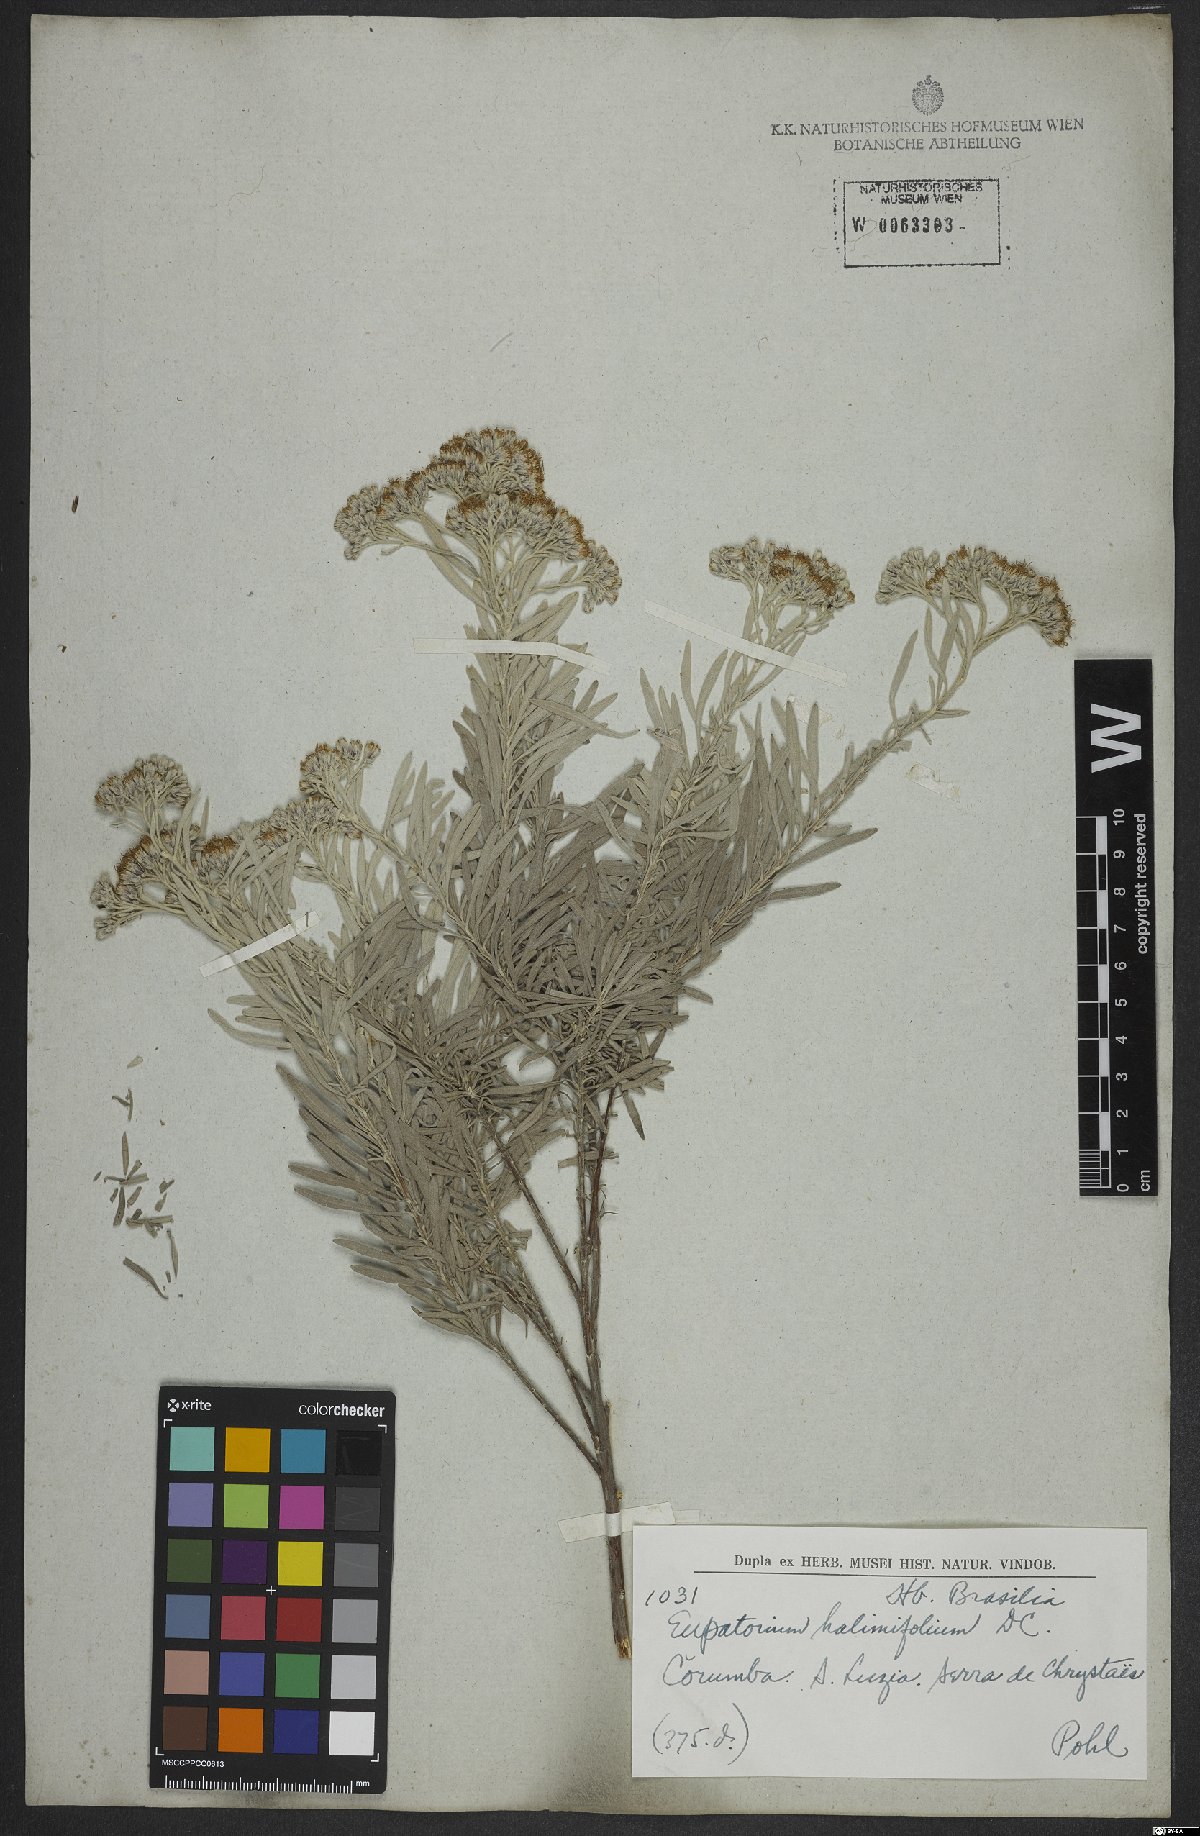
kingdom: Plantae
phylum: Tracheophyta
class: Magnoliopsida
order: Asterales
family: Asteraceae
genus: Disynaphia
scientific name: Disynaphia halimifolia
